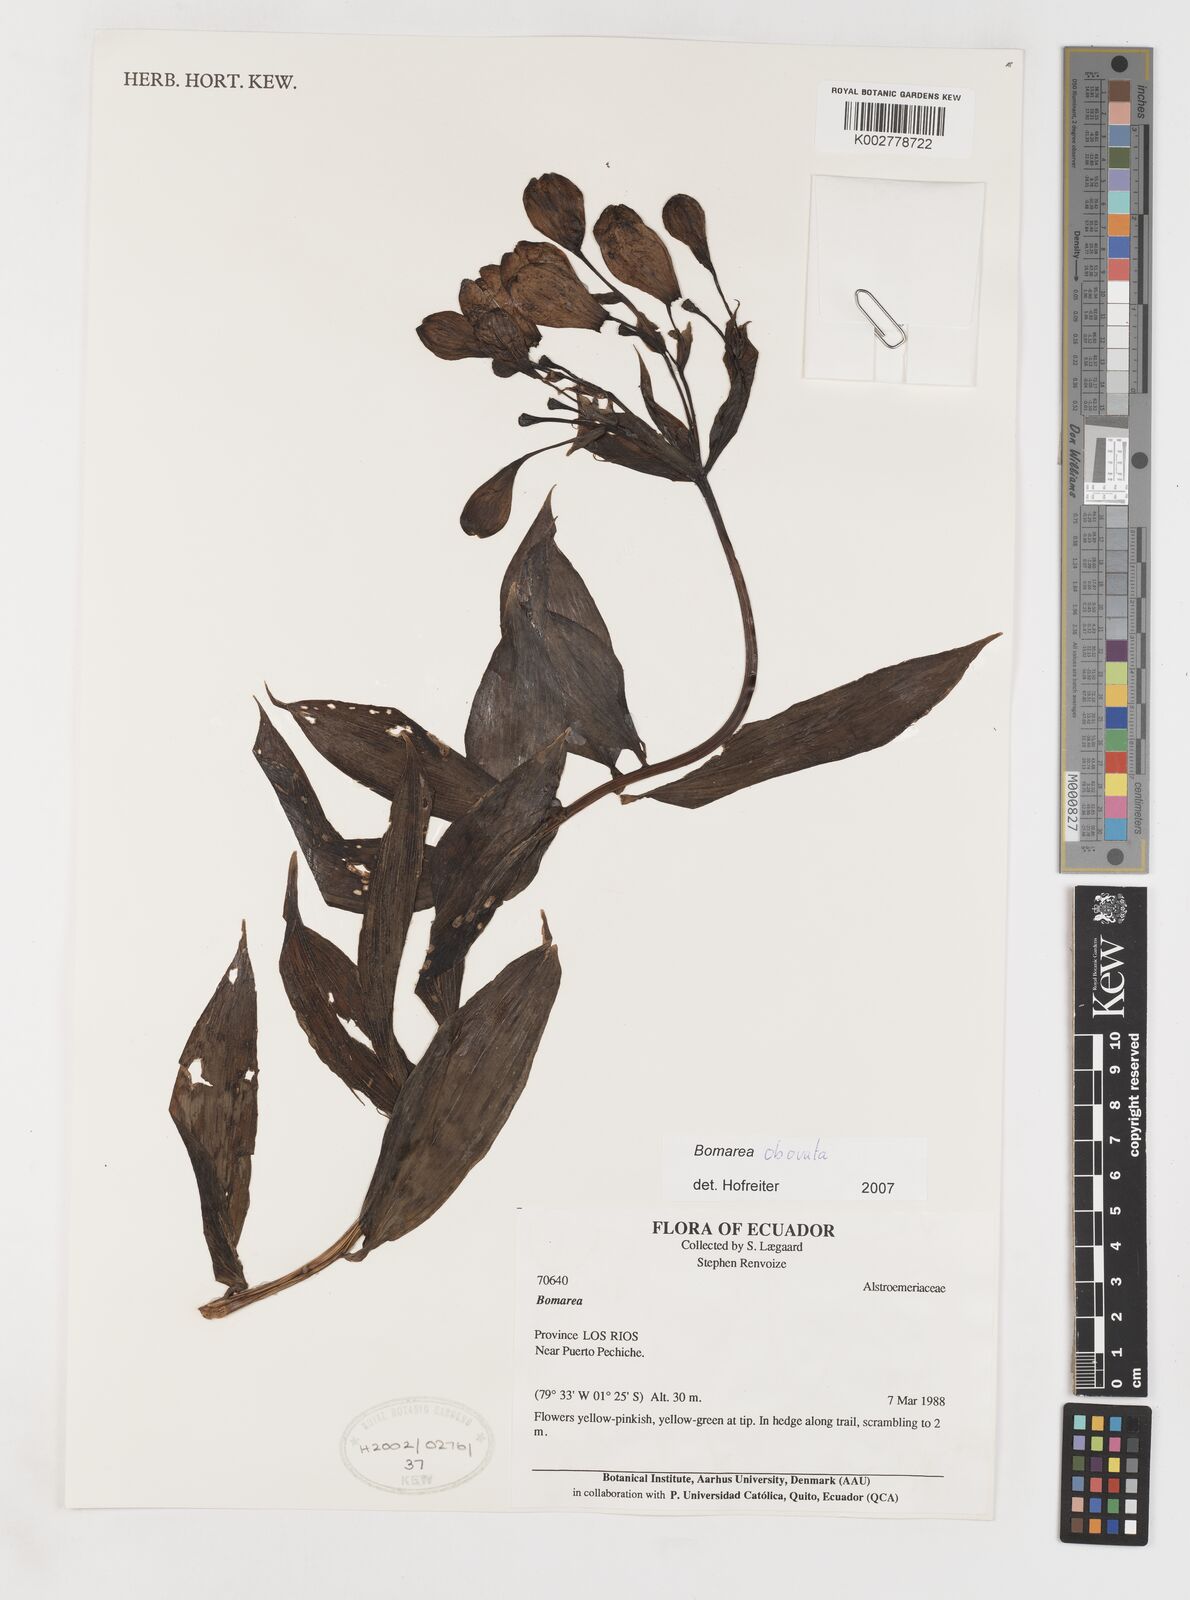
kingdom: Plantae
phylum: Tracheophyta
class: Liliopsida
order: Liliales
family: Alstroemeriaceae
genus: Bomarea
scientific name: Bomarea edulis
